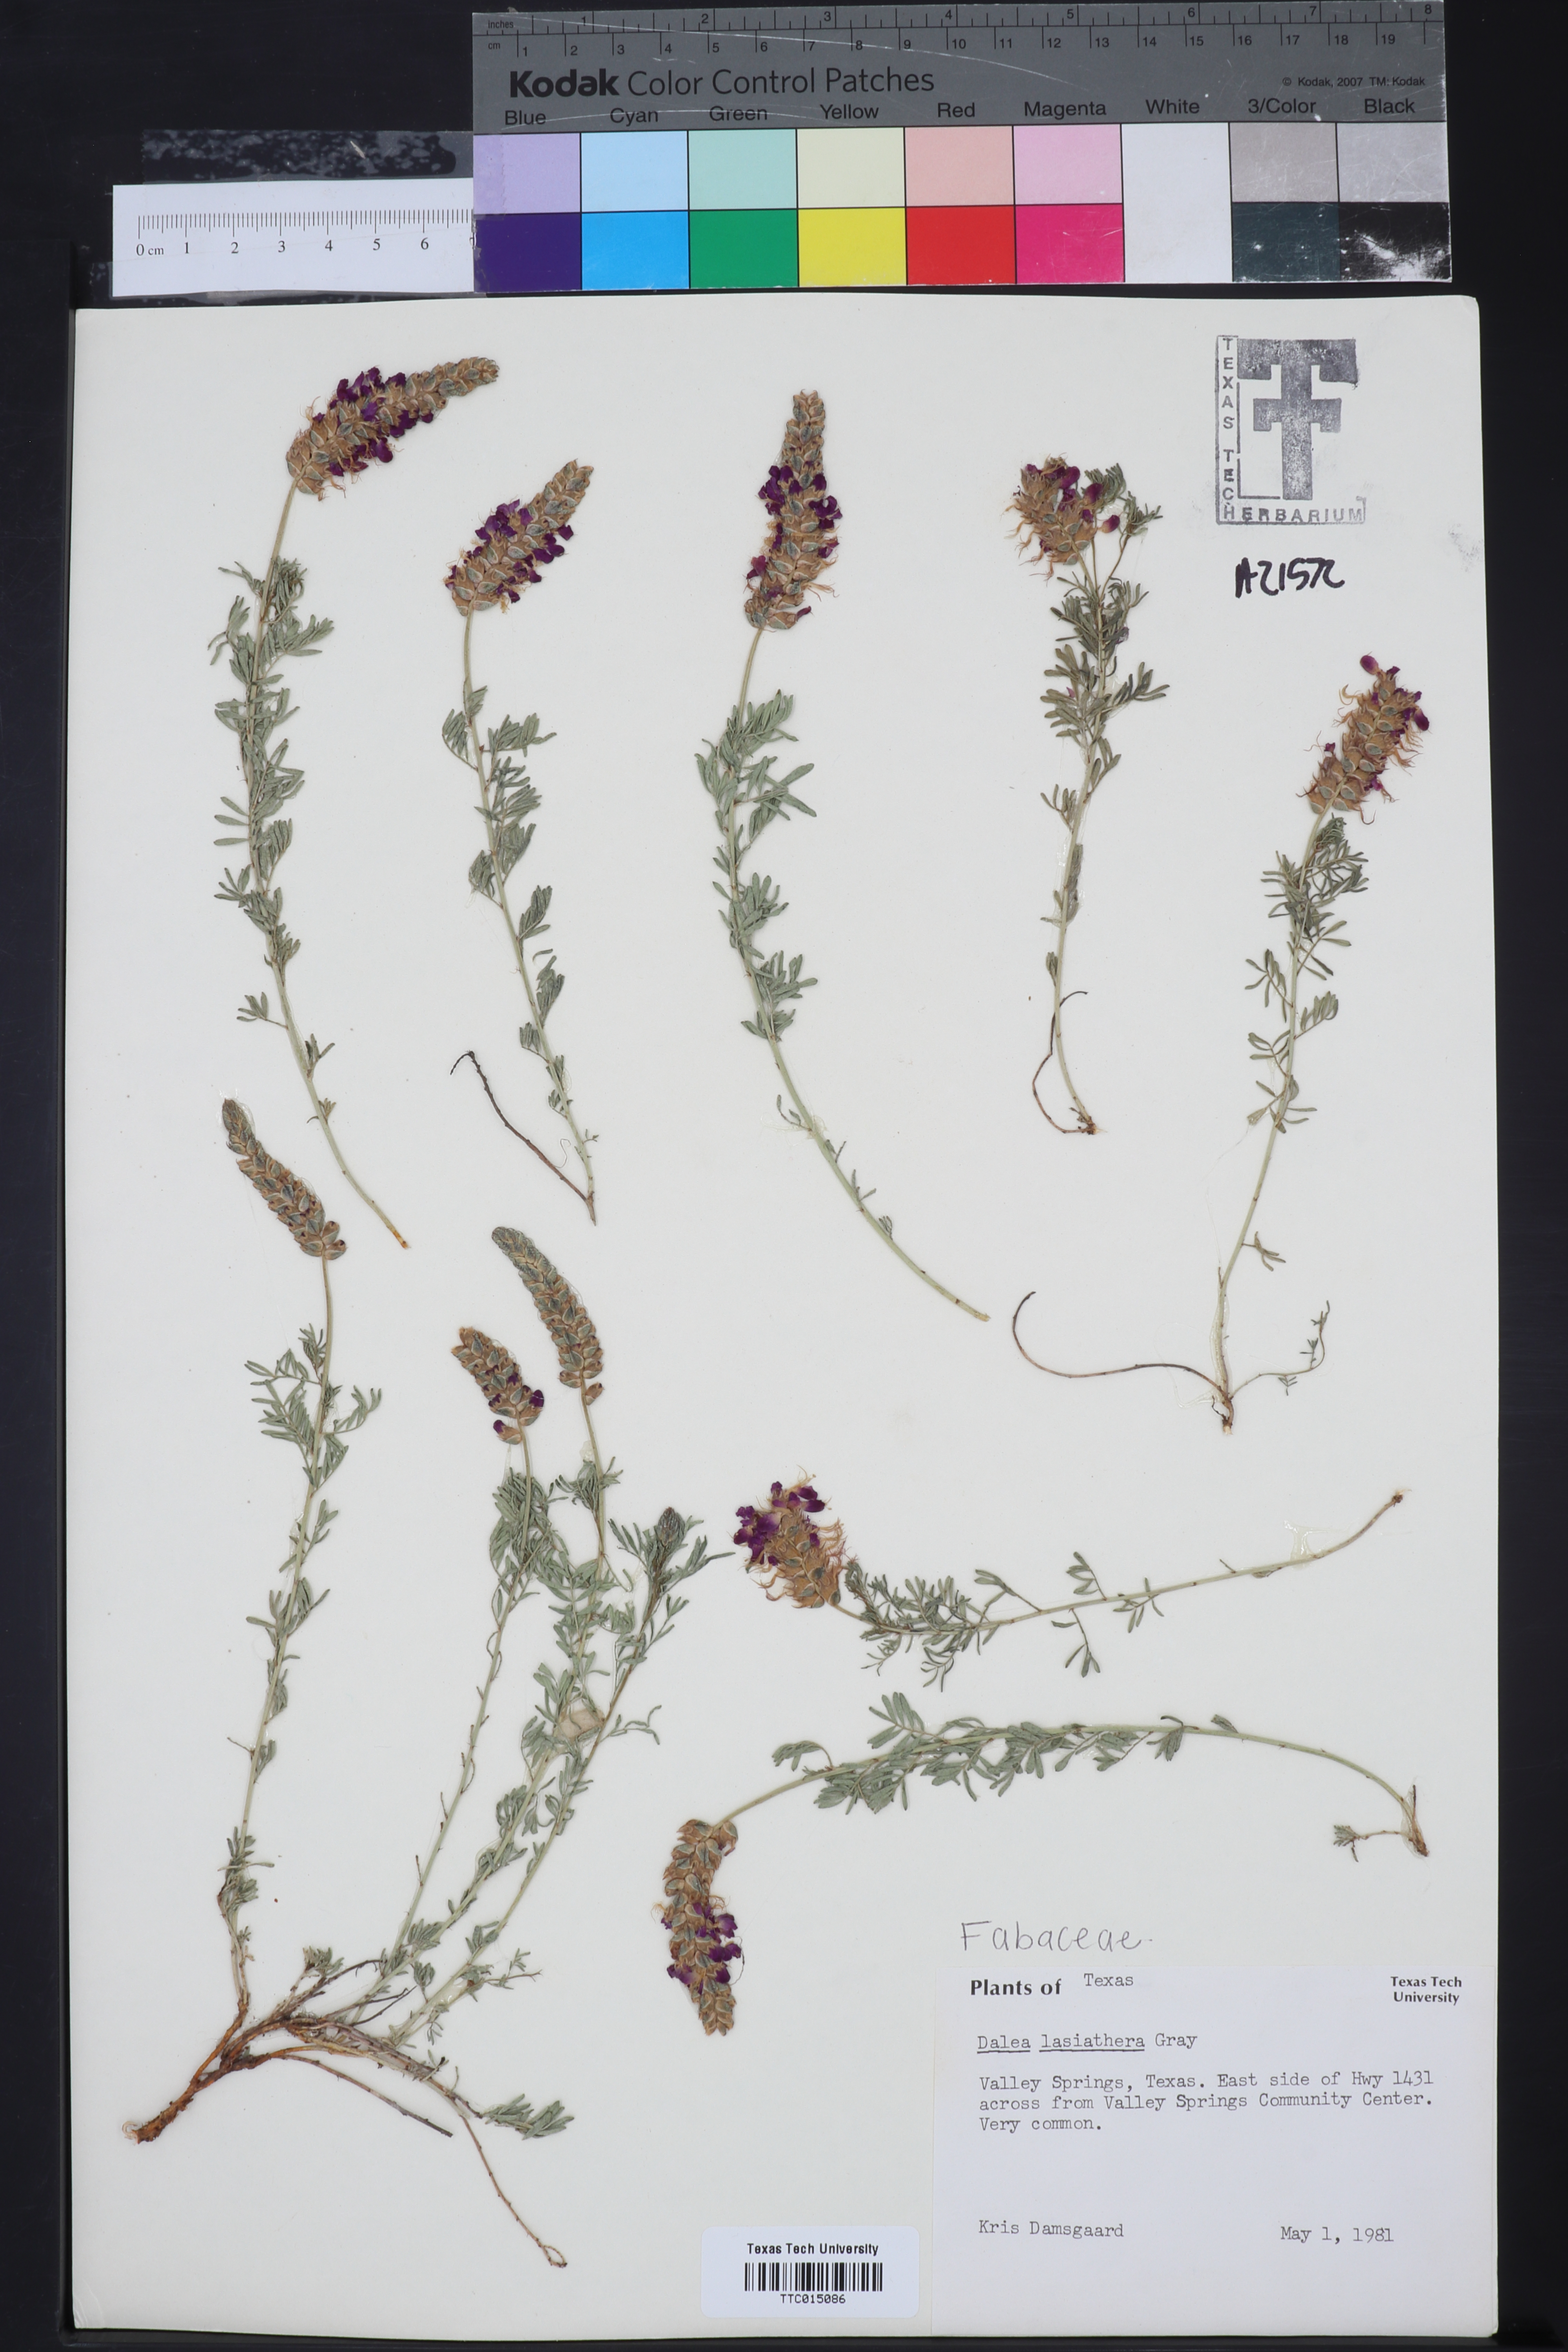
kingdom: Plantae
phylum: Tracheophyta
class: Magnoliopsida
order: Fabales
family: Fabaceae
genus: Dalea
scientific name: Dalea lasiathera
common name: Purple prairie-clover
